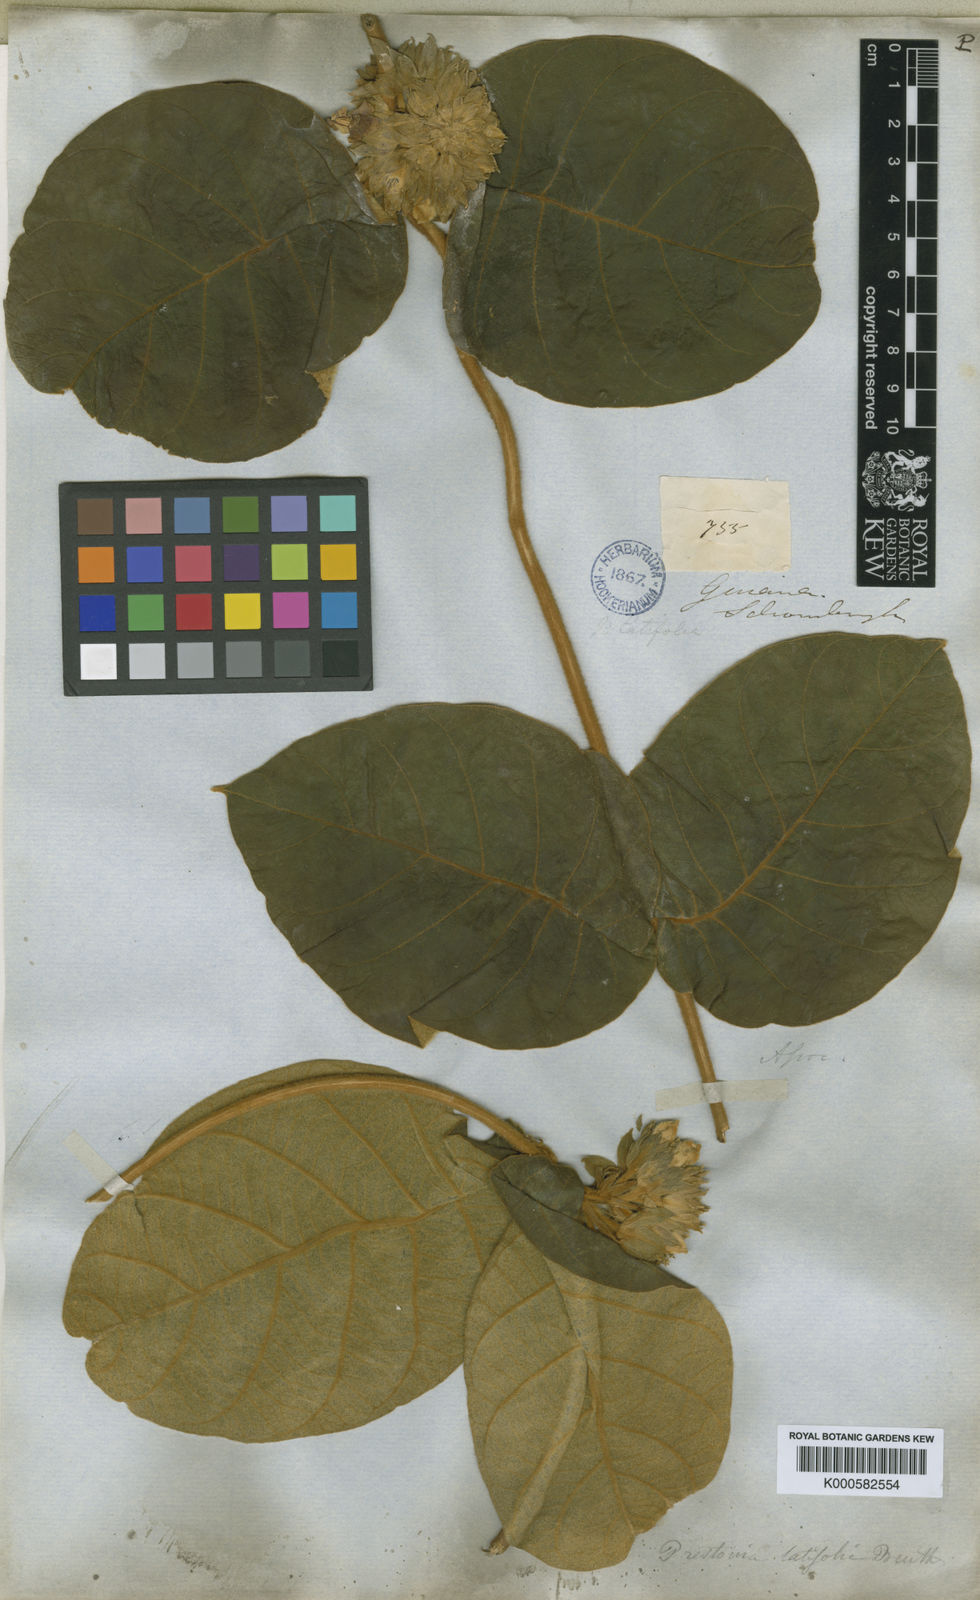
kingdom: Plantae
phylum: Tracheophyta
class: Magnoliopsida
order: Gentianales
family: Apocynaceae
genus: Prestonia
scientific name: Prestonia tomentosa
